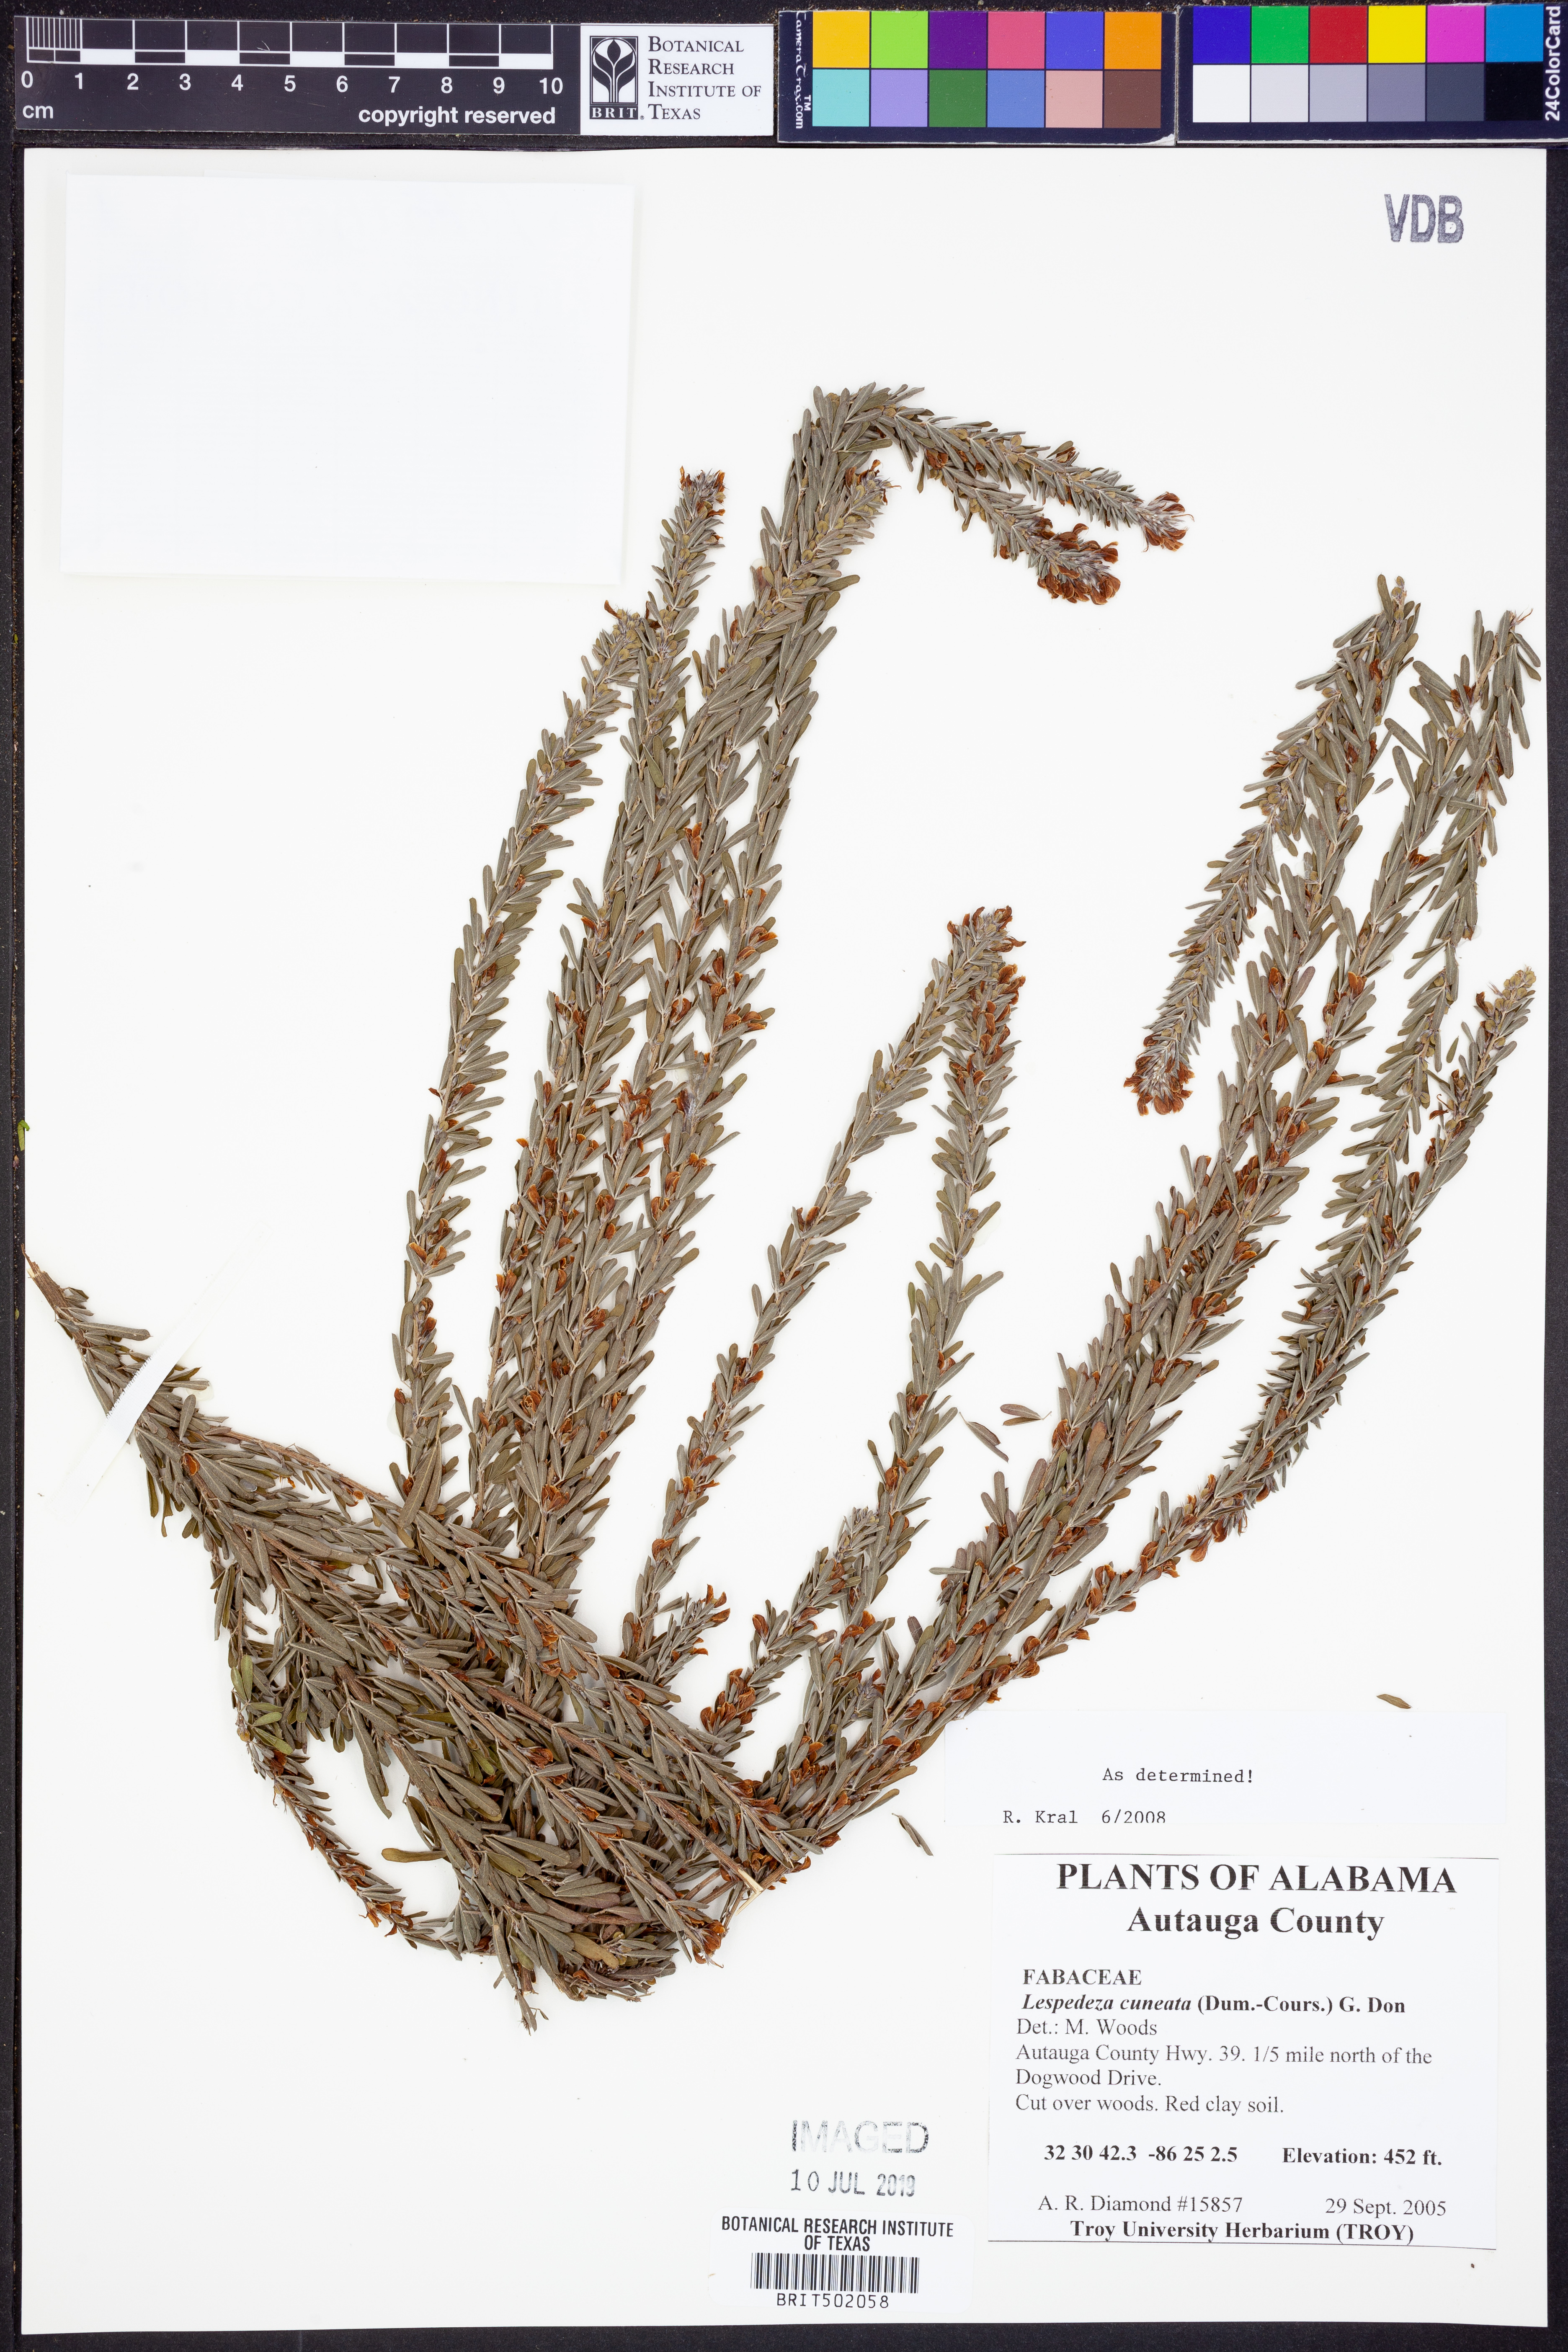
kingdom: Plantae
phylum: Tracheophyta
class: Magnoliopsida
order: Fabales
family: Fabaceae
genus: Lespedeza
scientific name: Lespedeza cuneata
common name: Chinese bush-clover
